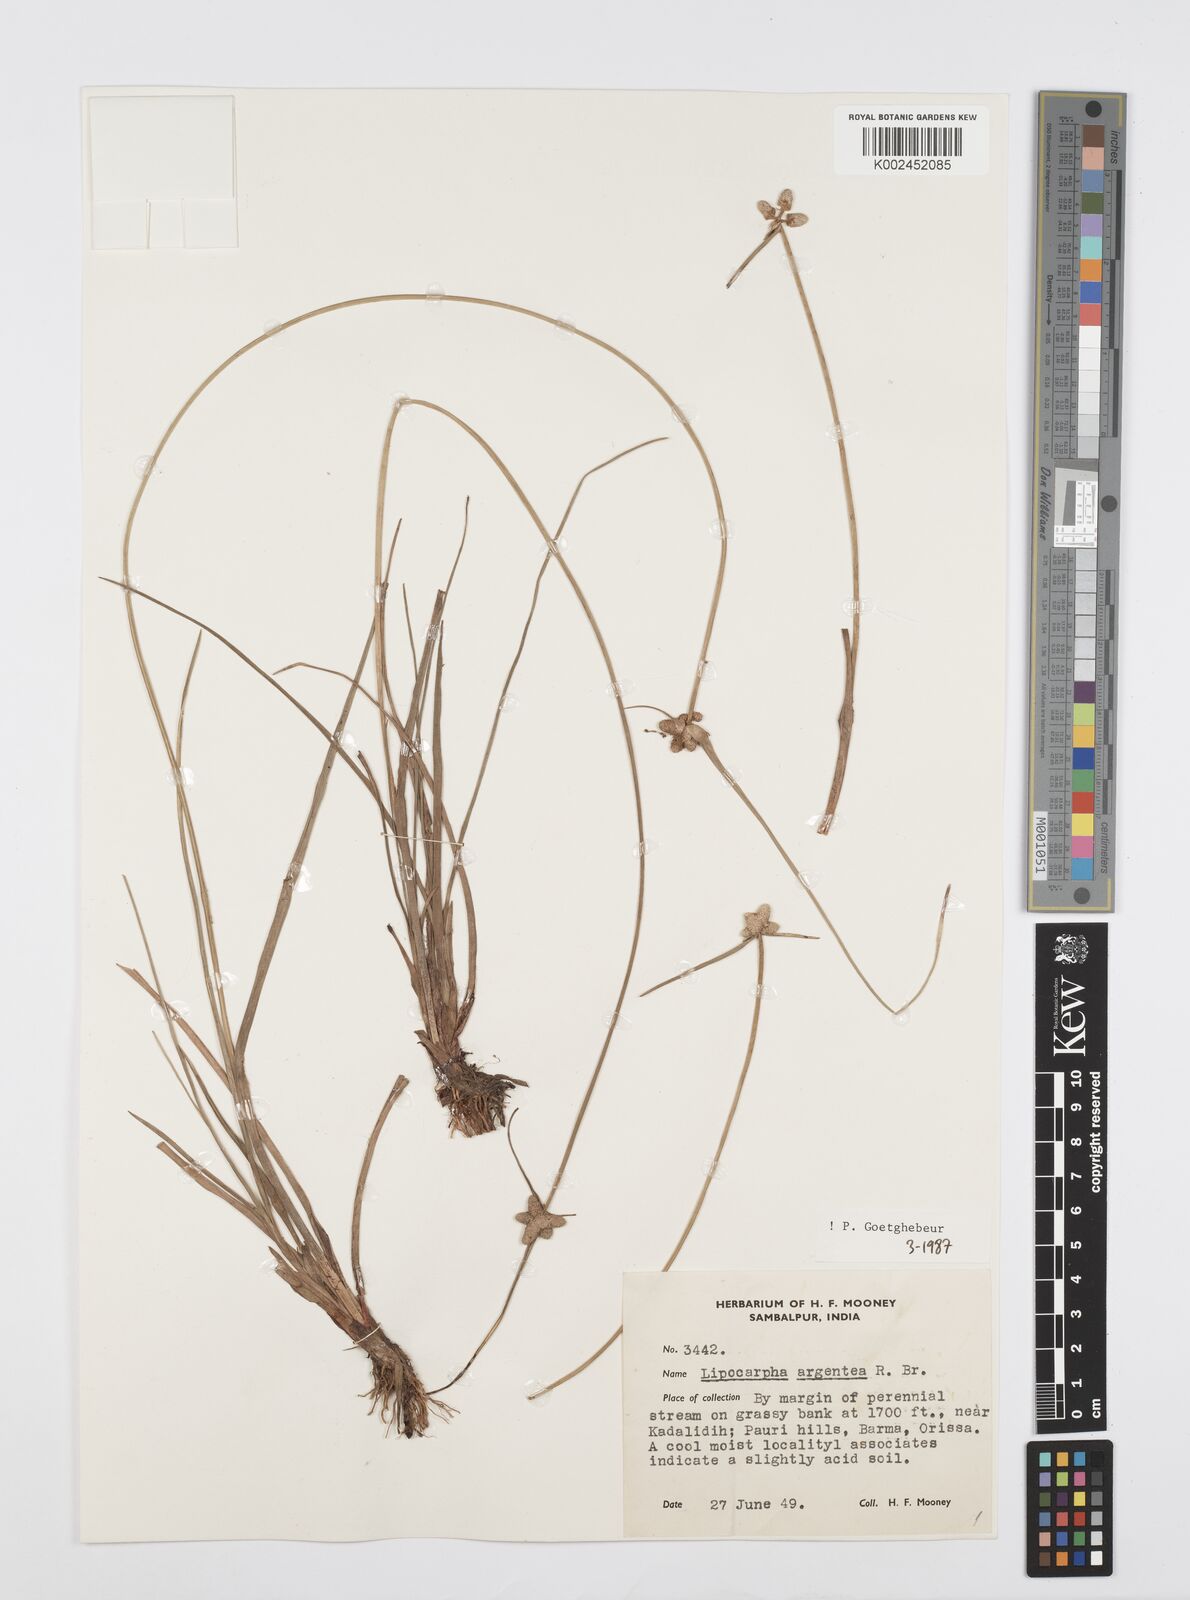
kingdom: Plantae
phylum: Tracheophyta
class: Liliopsida
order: Poales
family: Cyperaceae
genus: Cyperus
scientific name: Cyperus
